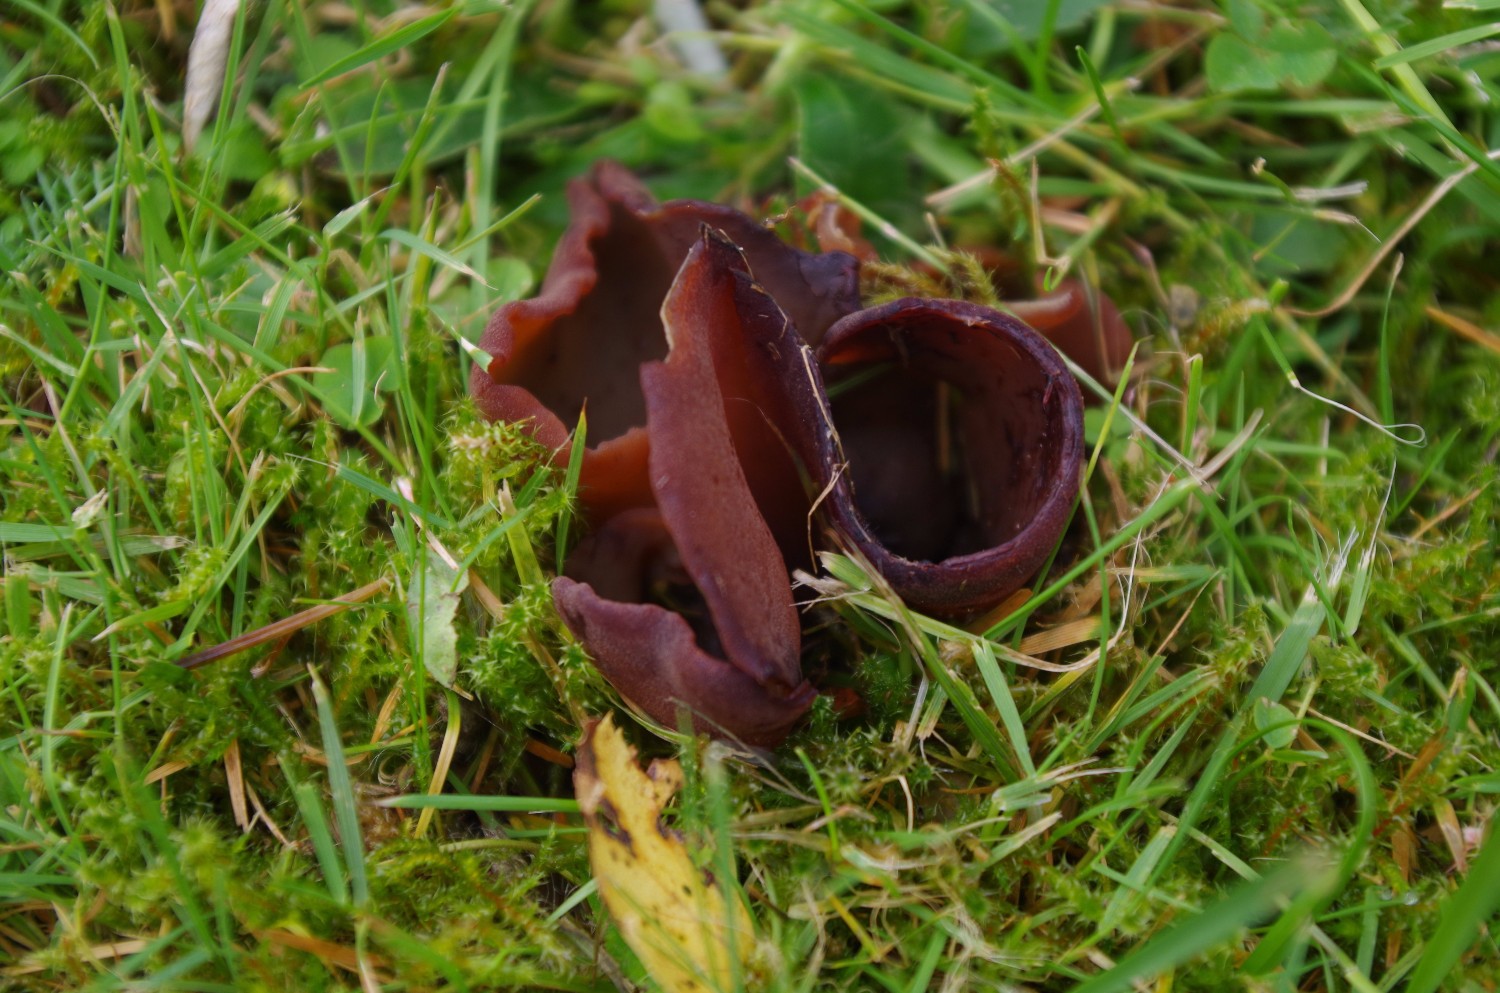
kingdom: Fungi
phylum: Ascomycota
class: Pezizomycetes
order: Pezizales
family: Otideaceae
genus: Otidea
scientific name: Otidea bufonia
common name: brun ørebæger
